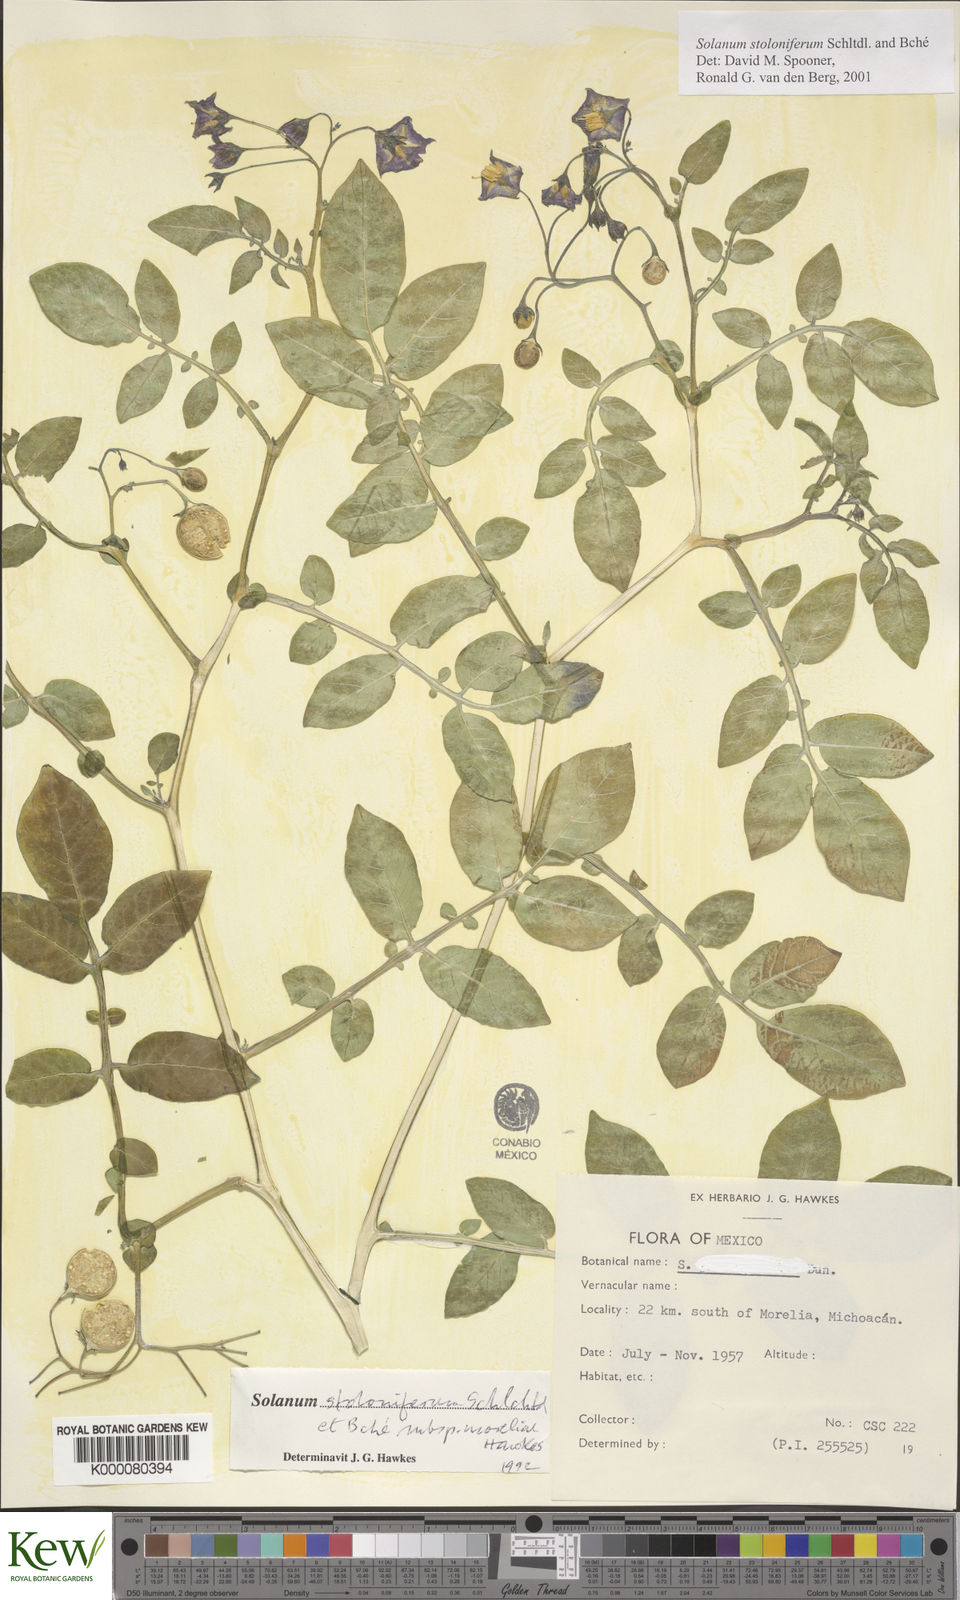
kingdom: Plantae
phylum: Tracheophyta
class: Magnoliopsida
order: Solanales
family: Solanaceae
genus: Solanum
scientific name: Solanum stoloniferum
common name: Fendler's nighshade
